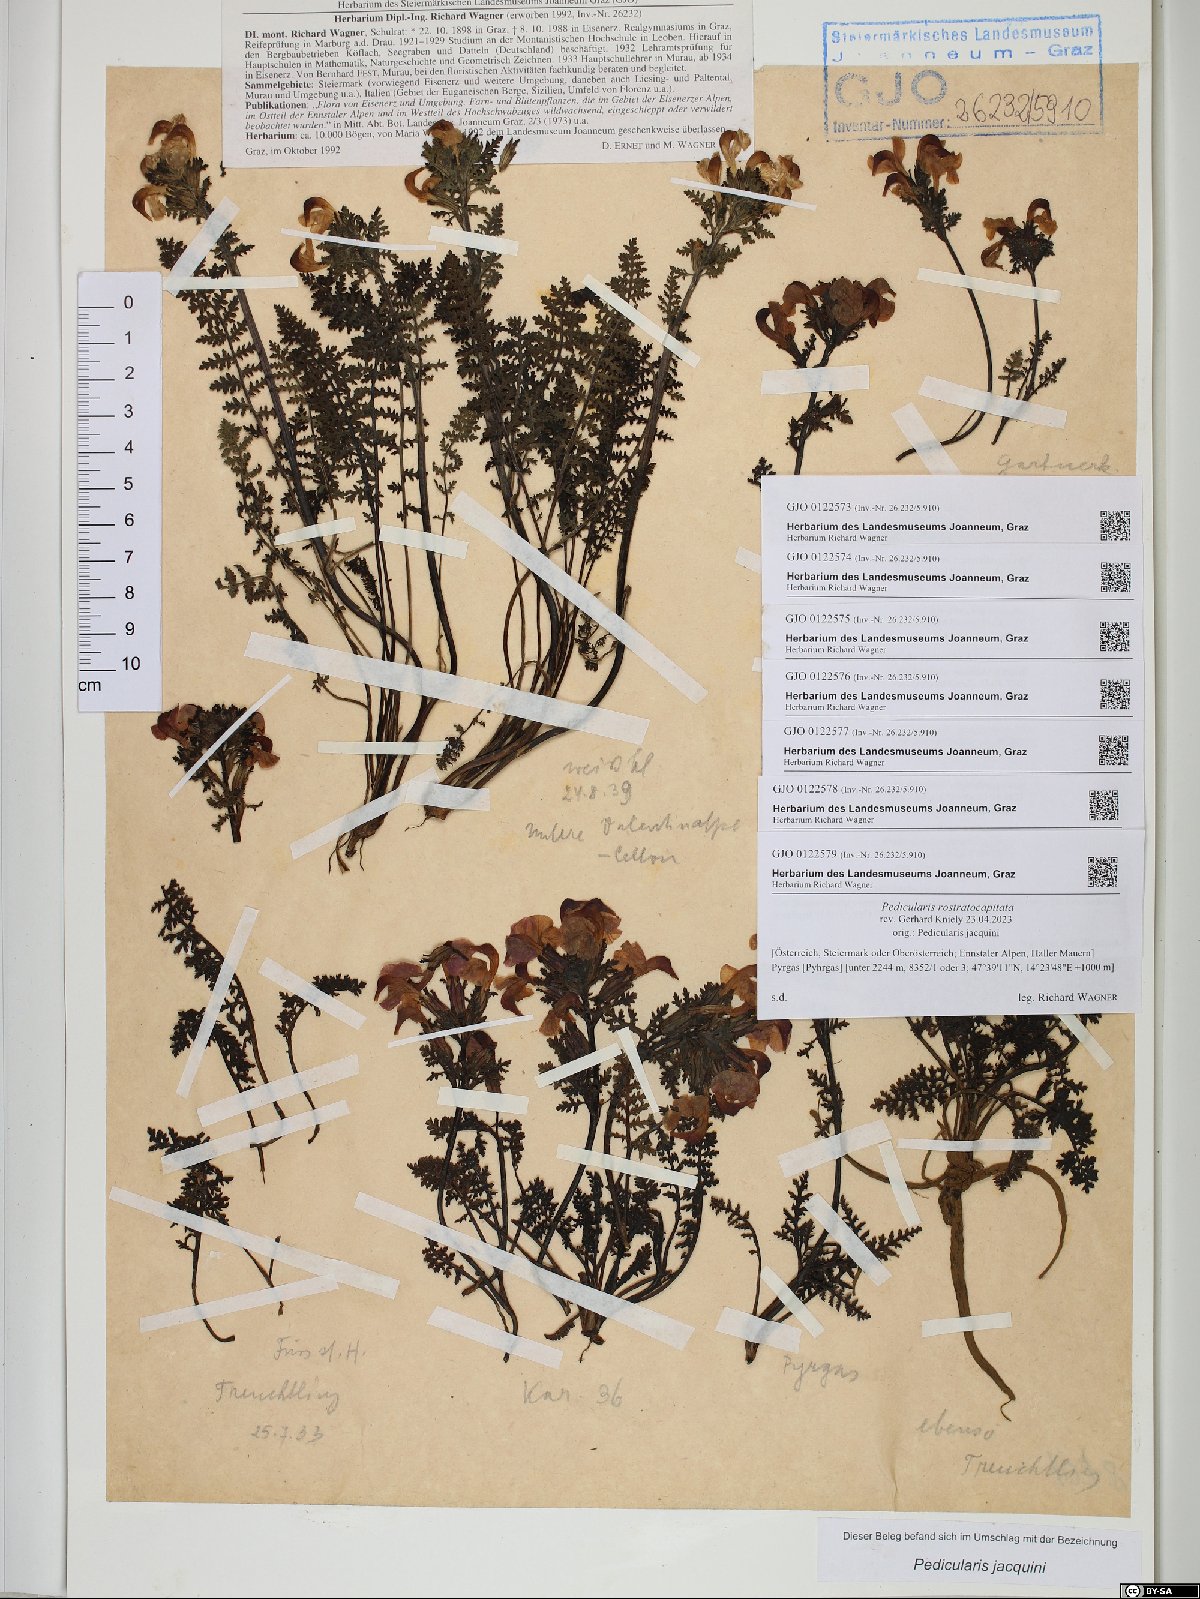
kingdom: Plantae
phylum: Tracheophyta
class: Magnoliopsida
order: Lamiales
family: Orobanchaceae
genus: Pedicularis
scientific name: Pedicularis rostratocapitata
